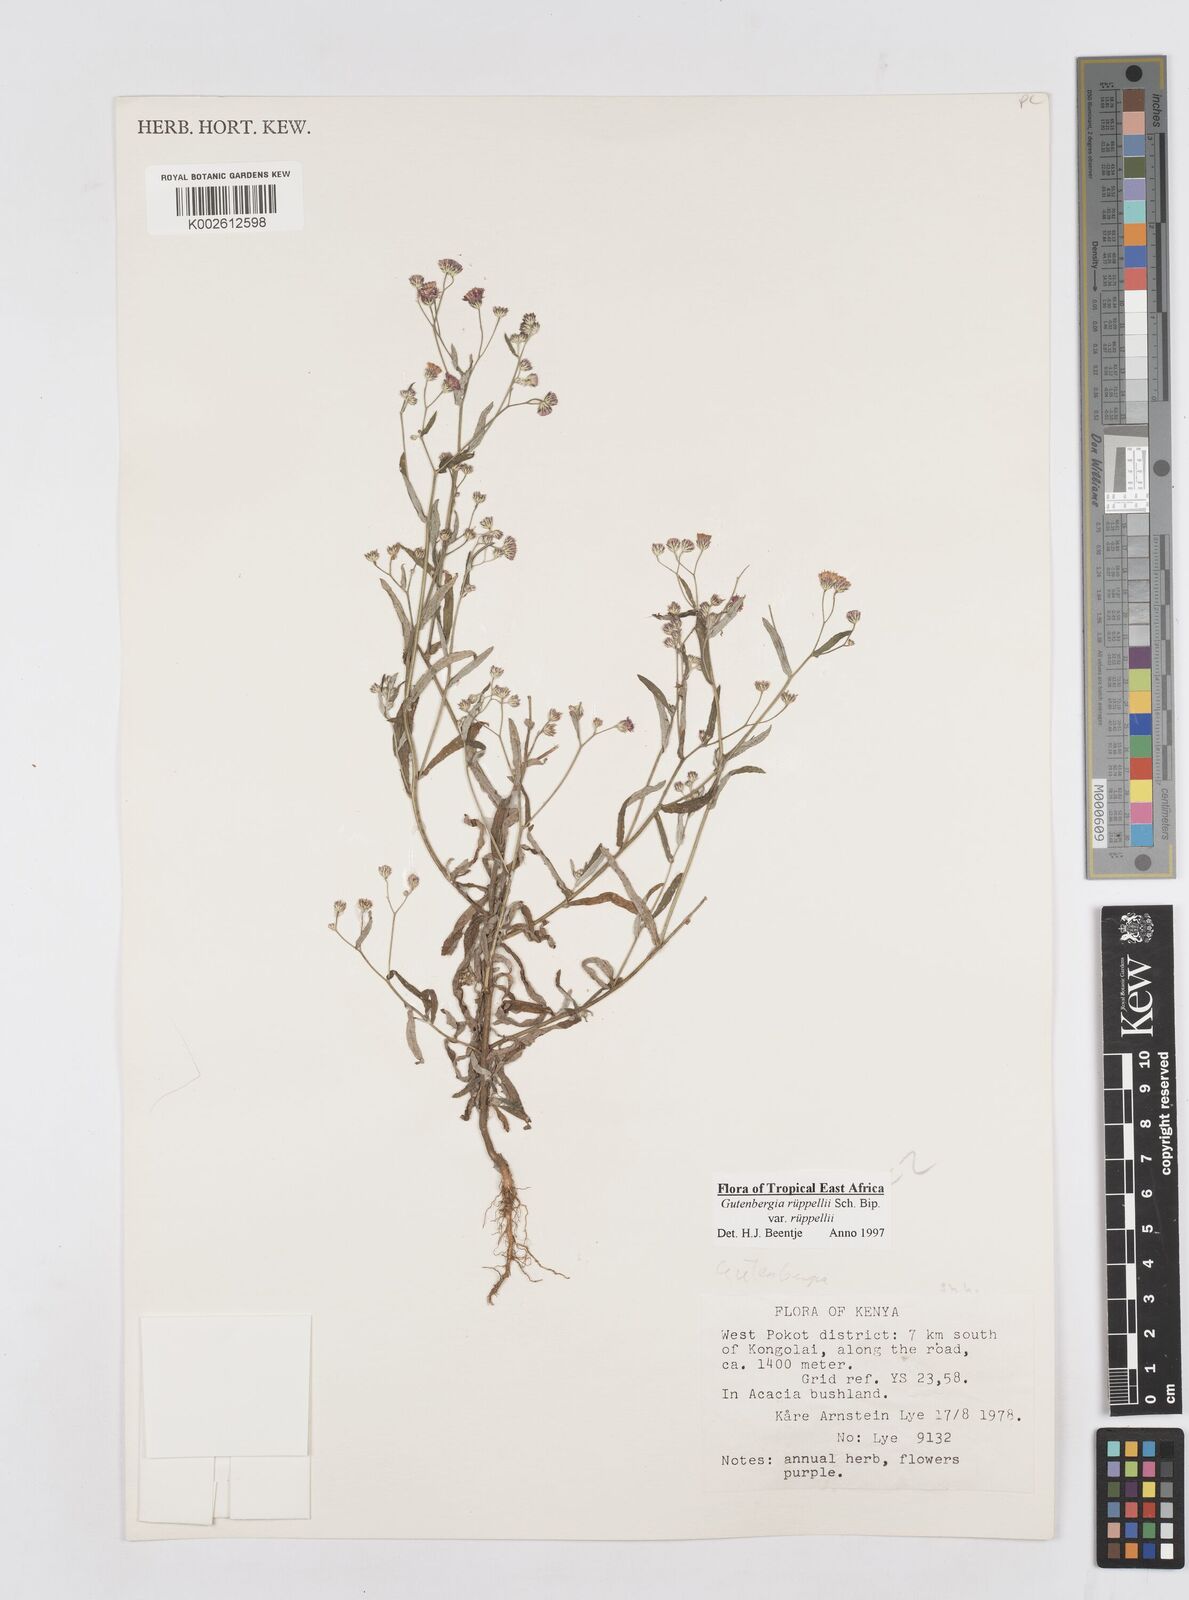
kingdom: Plantae
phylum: Tracheophyta
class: Magnoliopsida
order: Asterales
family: Asteraceae
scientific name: Asteraceae
